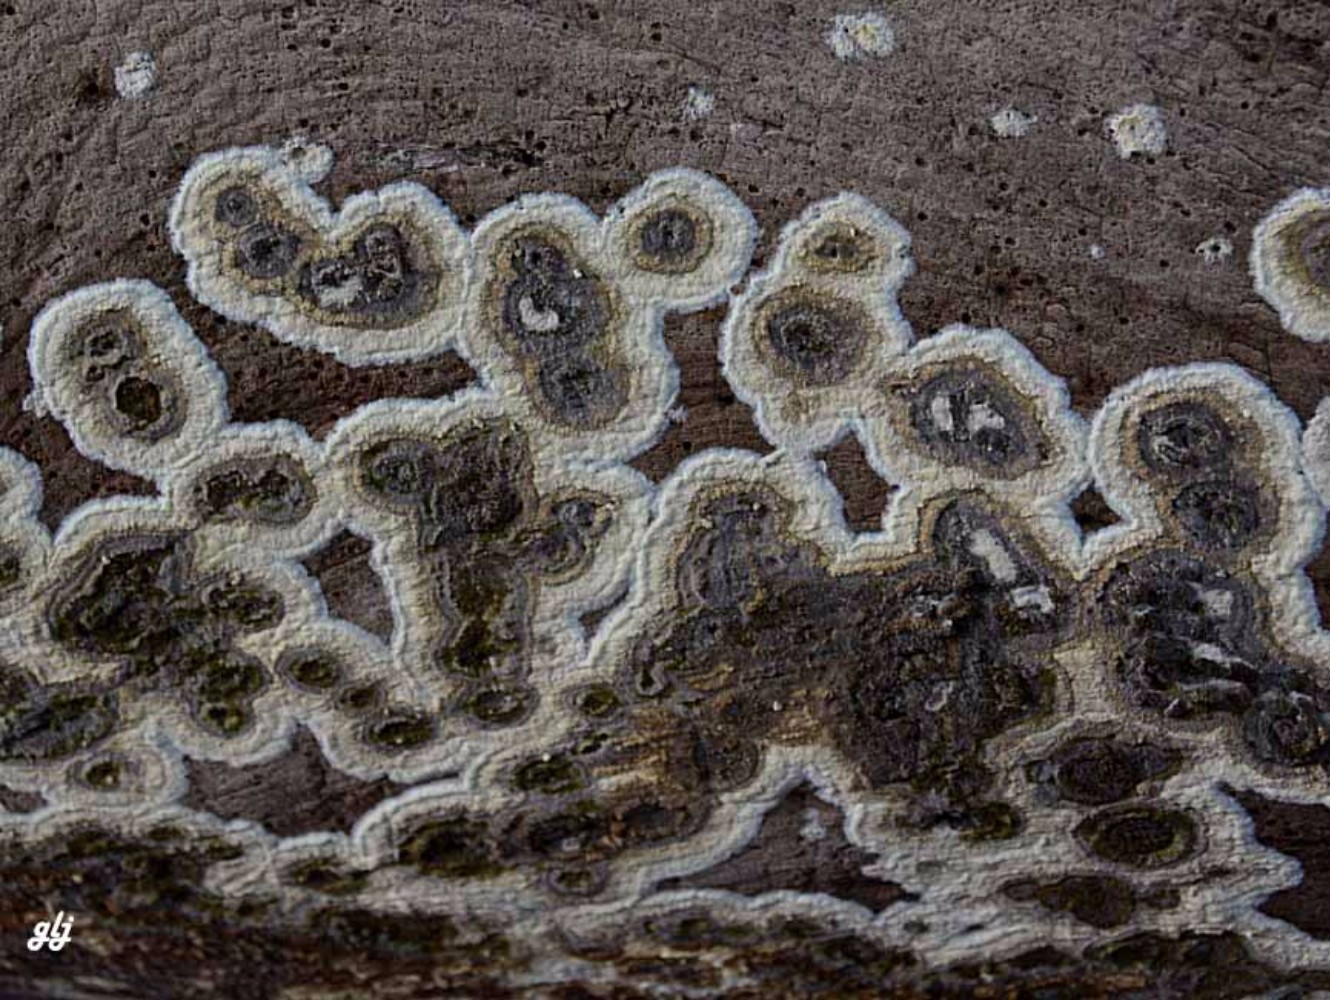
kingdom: Fungi
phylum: Basidiomycota
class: Agaricomycetes
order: Boletales
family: Coniophoraceae
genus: Coniophora
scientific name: Coniophora puteana
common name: gul tømmersvamp
